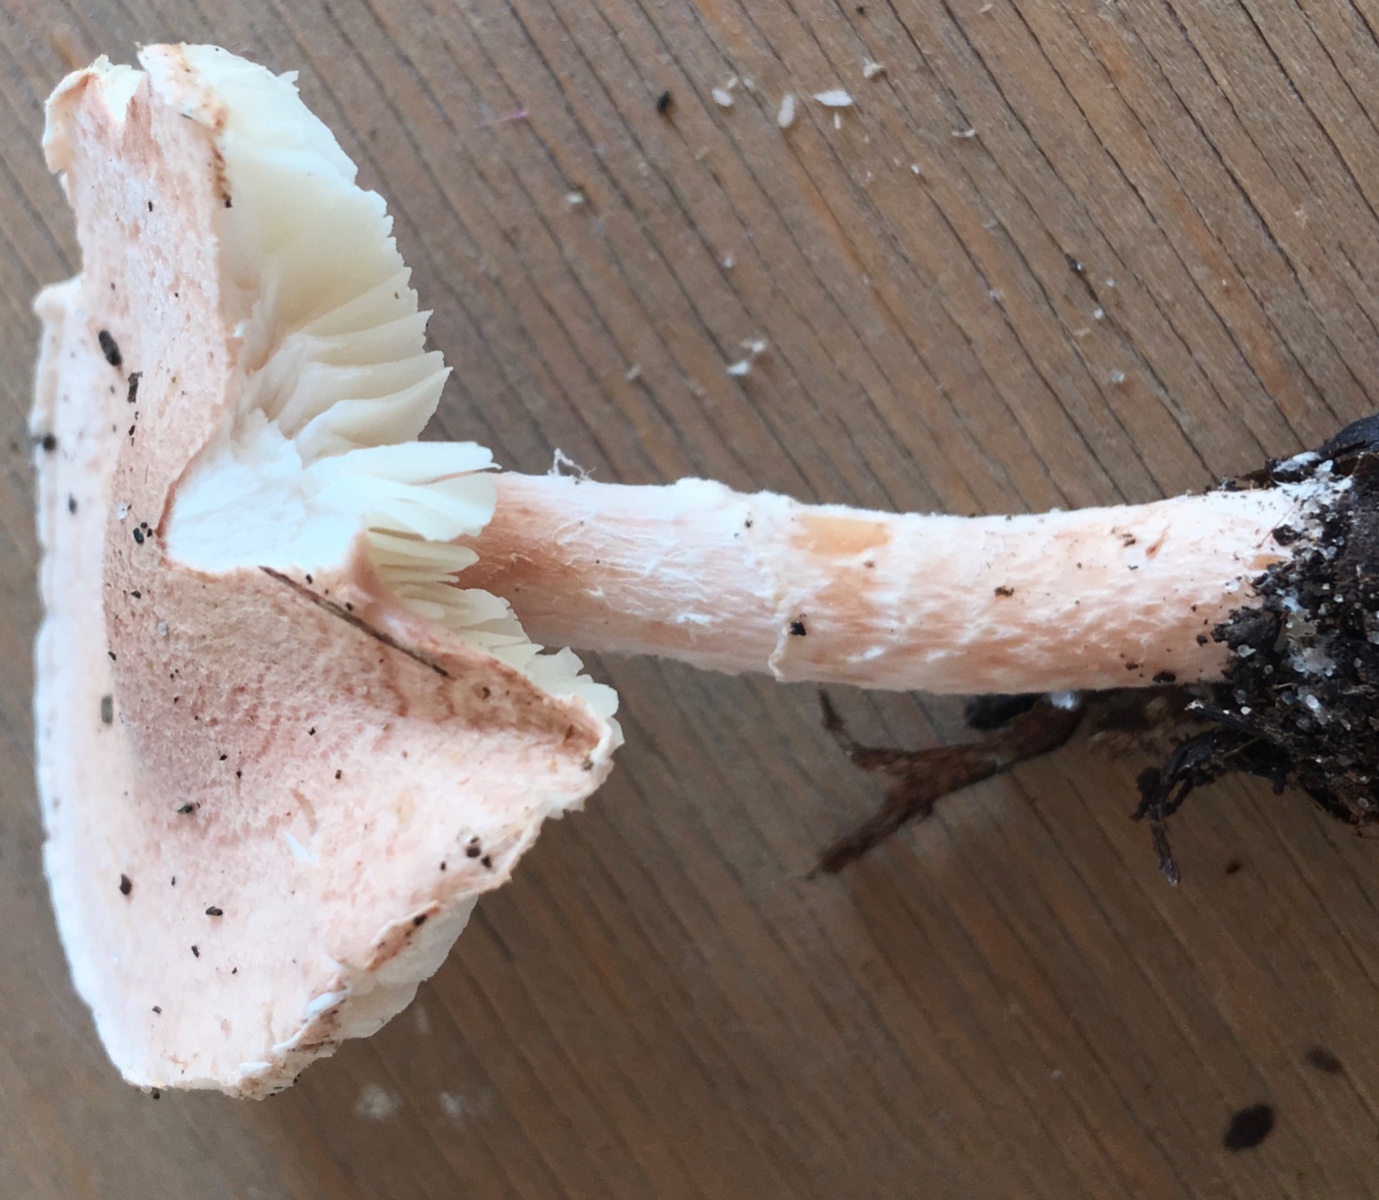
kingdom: Fungi
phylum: Basidiomycota
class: Agaricomycetes
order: Agaricales
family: Agaricaceae
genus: Lepiota
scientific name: Lepiota subincarnata
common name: kødfarvet parasolhat
